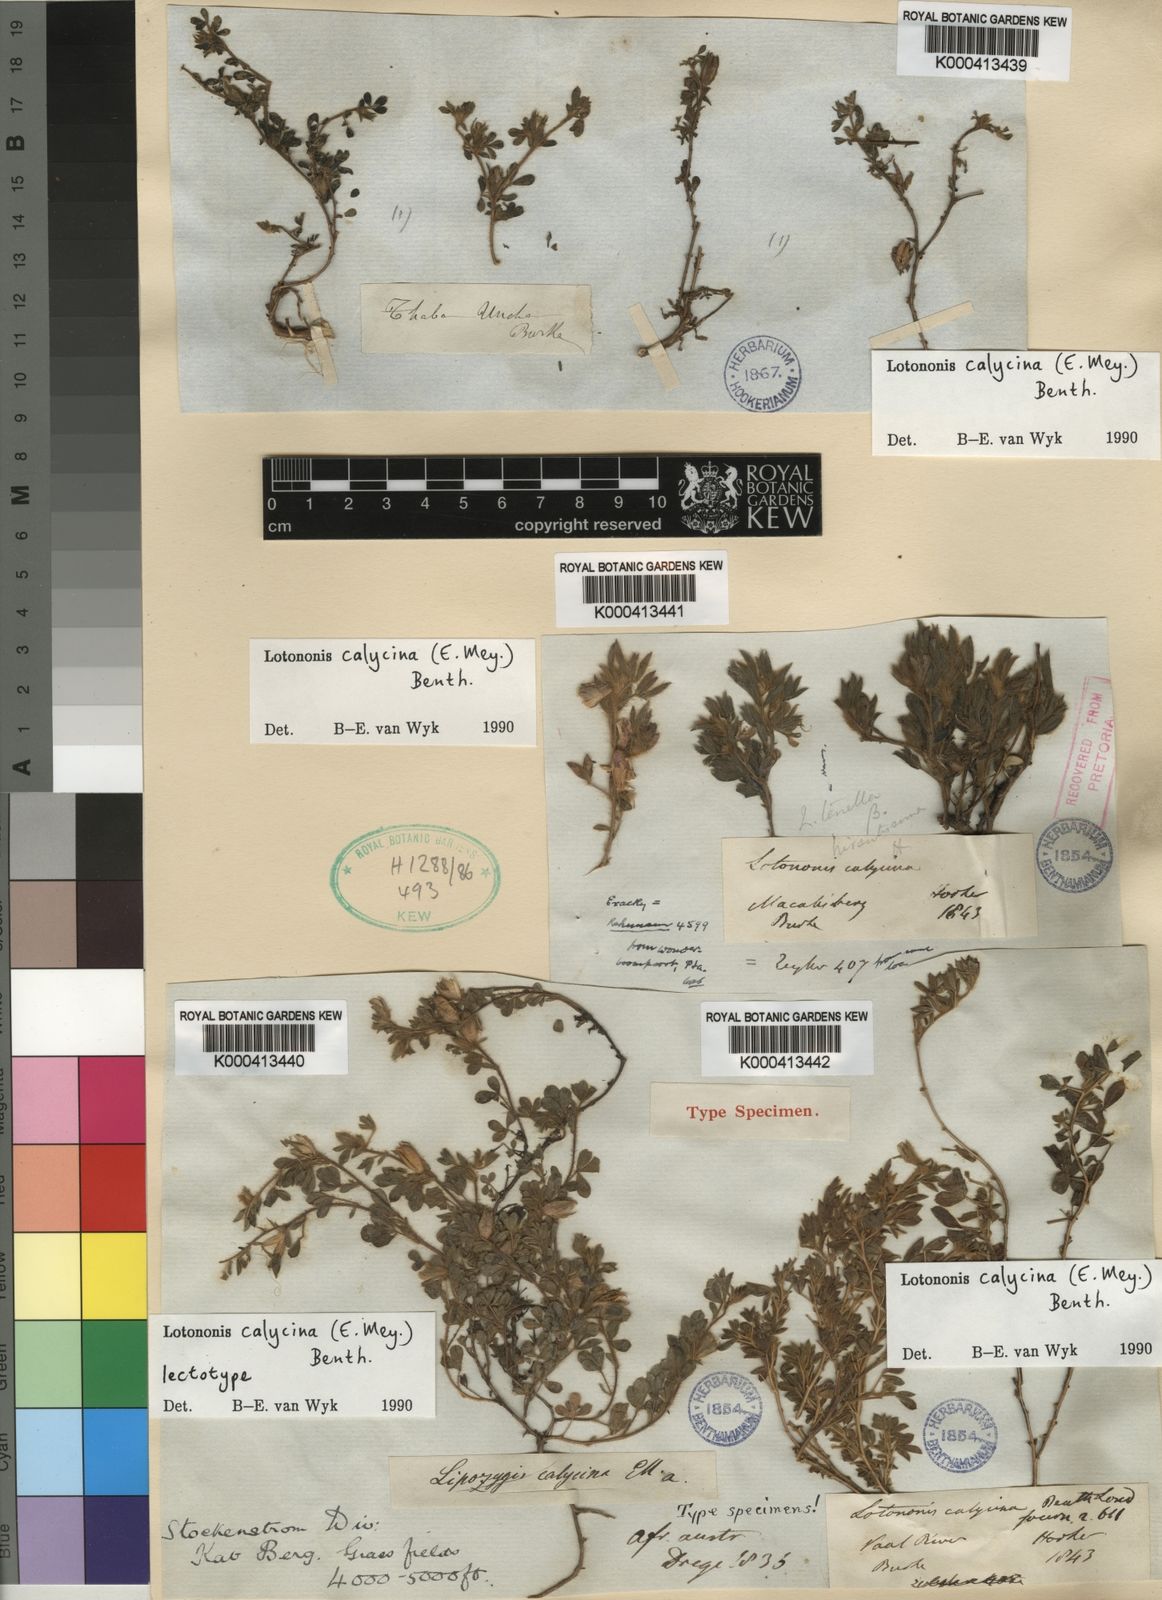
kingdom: Plantae
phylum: Tracheophyta
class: Magnoliopsida
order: Fabales
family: Fabaceae
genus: Leobordea
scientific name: Leobordea divaricata
